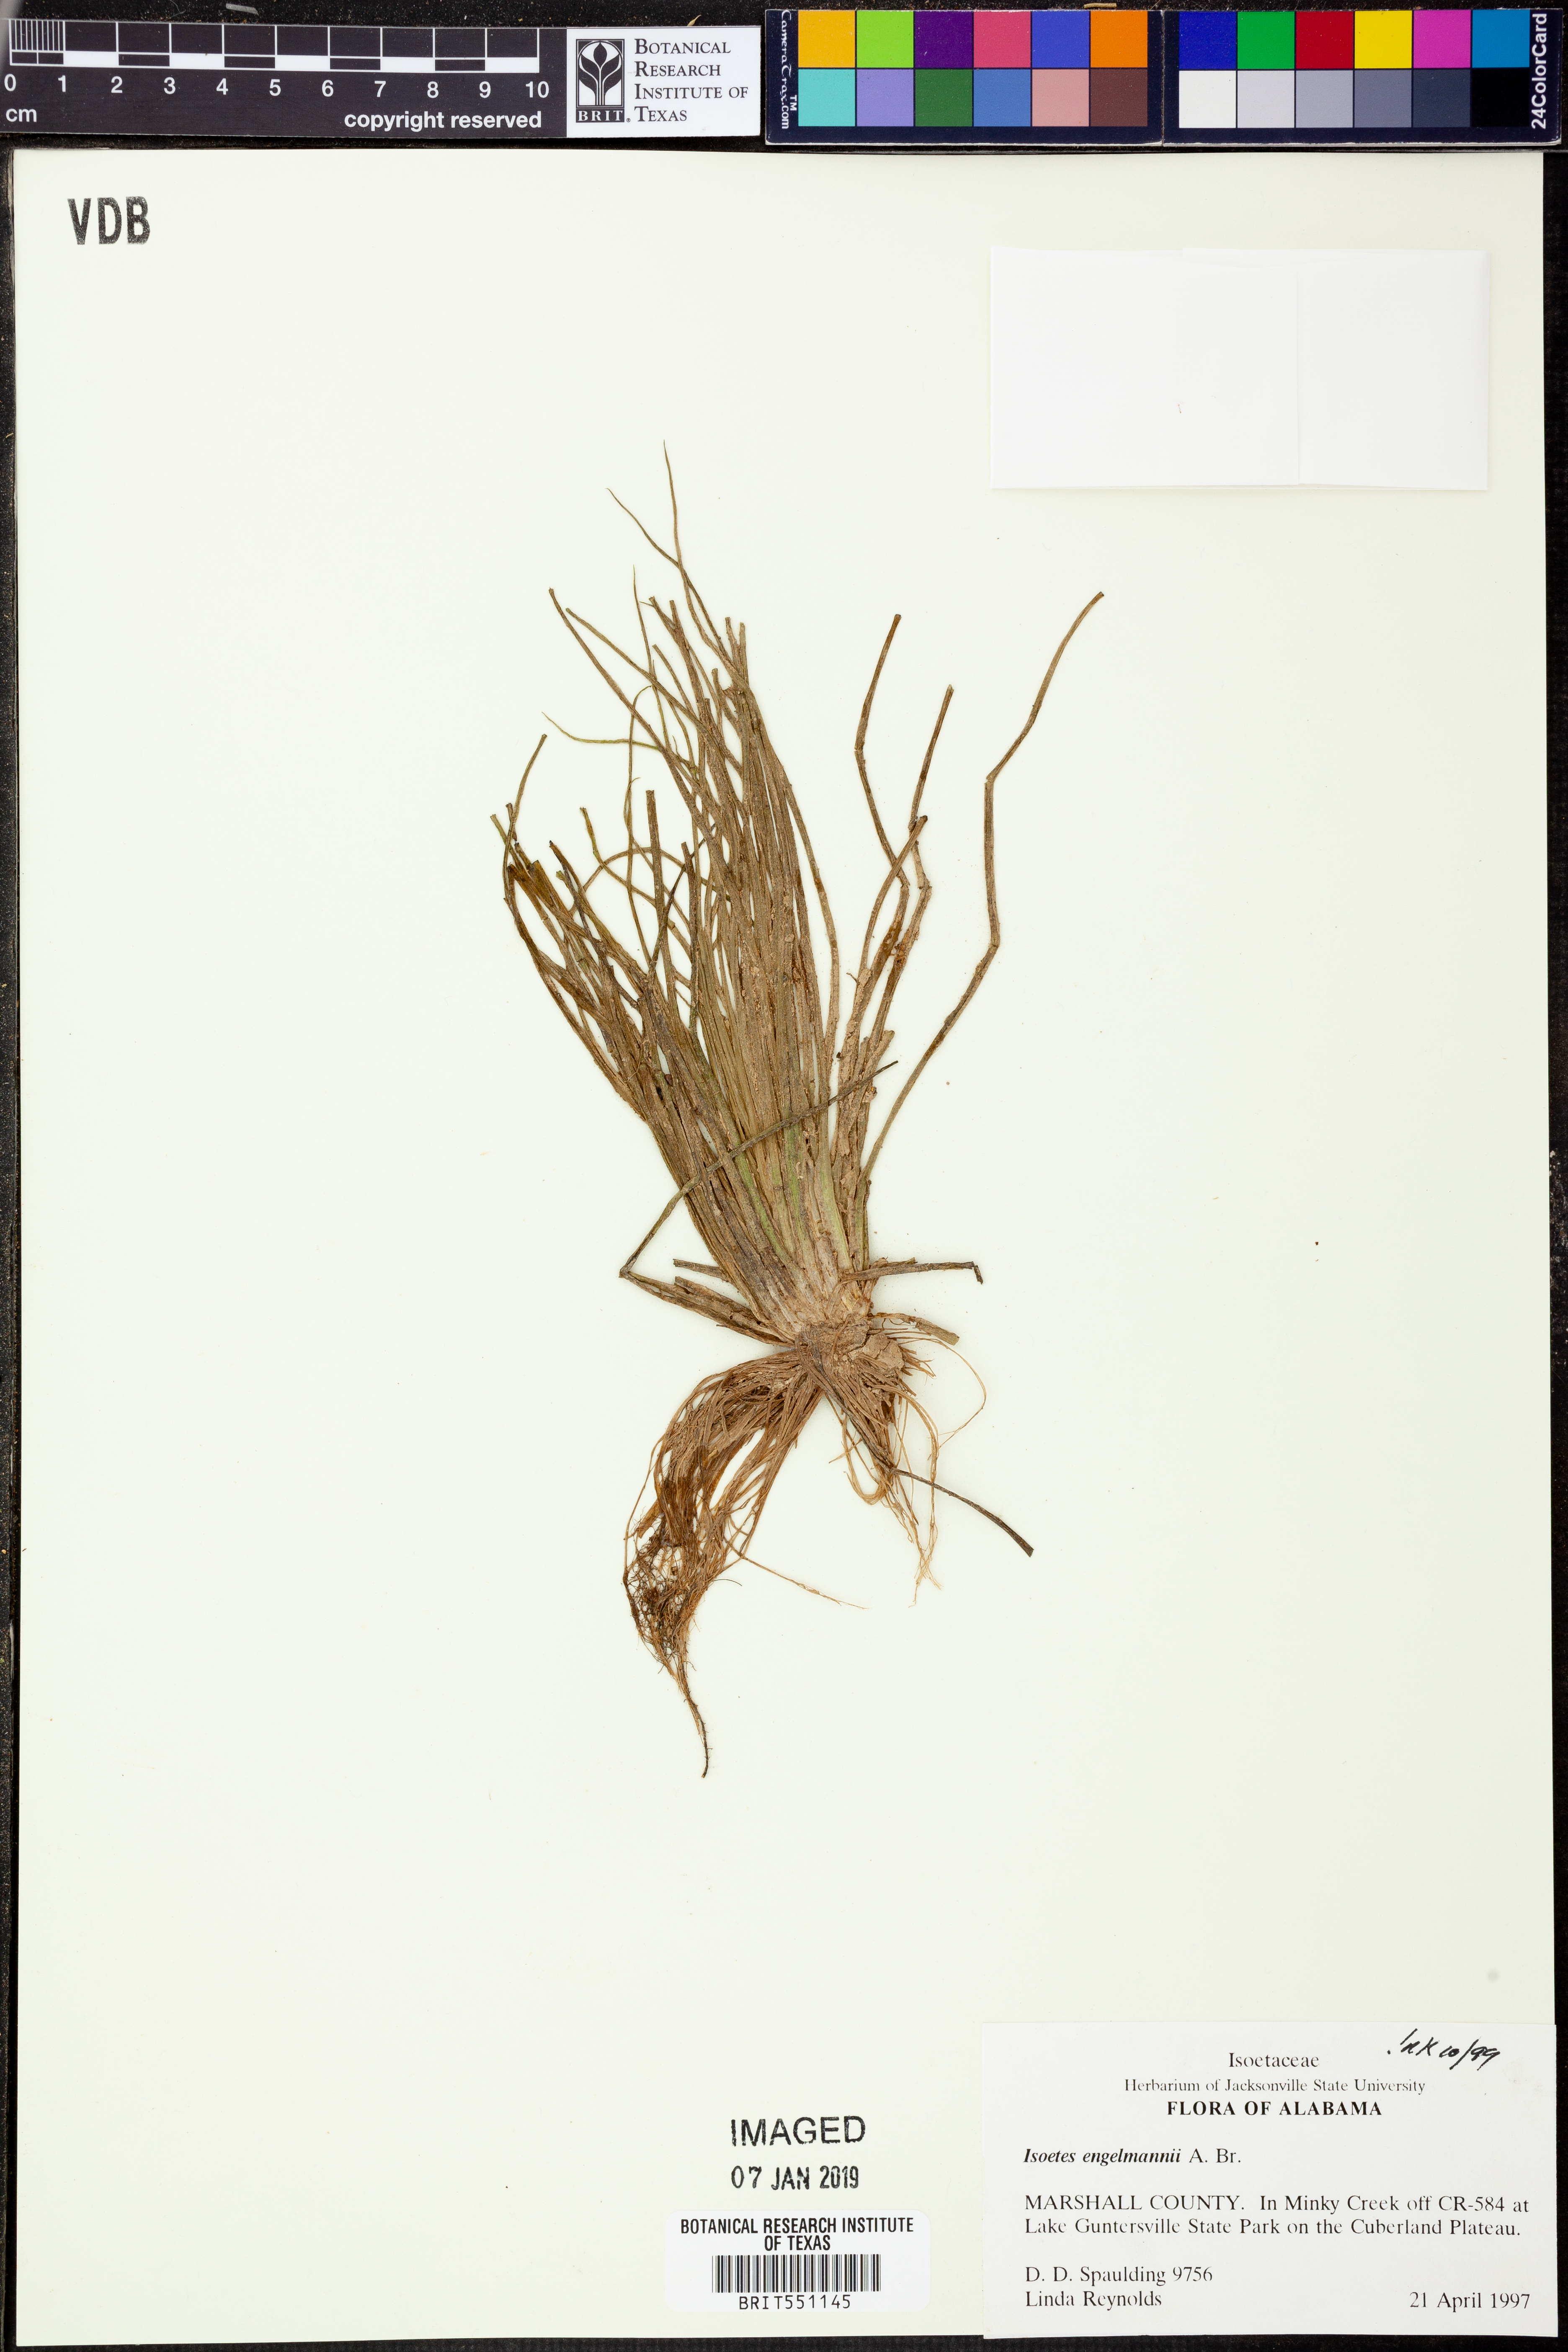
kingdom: Plantae
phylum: Tracheophyta
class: Lycopodiopsida
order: Isoetales
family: Isoetaceae
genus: Isoetes
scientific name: Isoetes engelmannii
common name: Engelmann's quillwort
